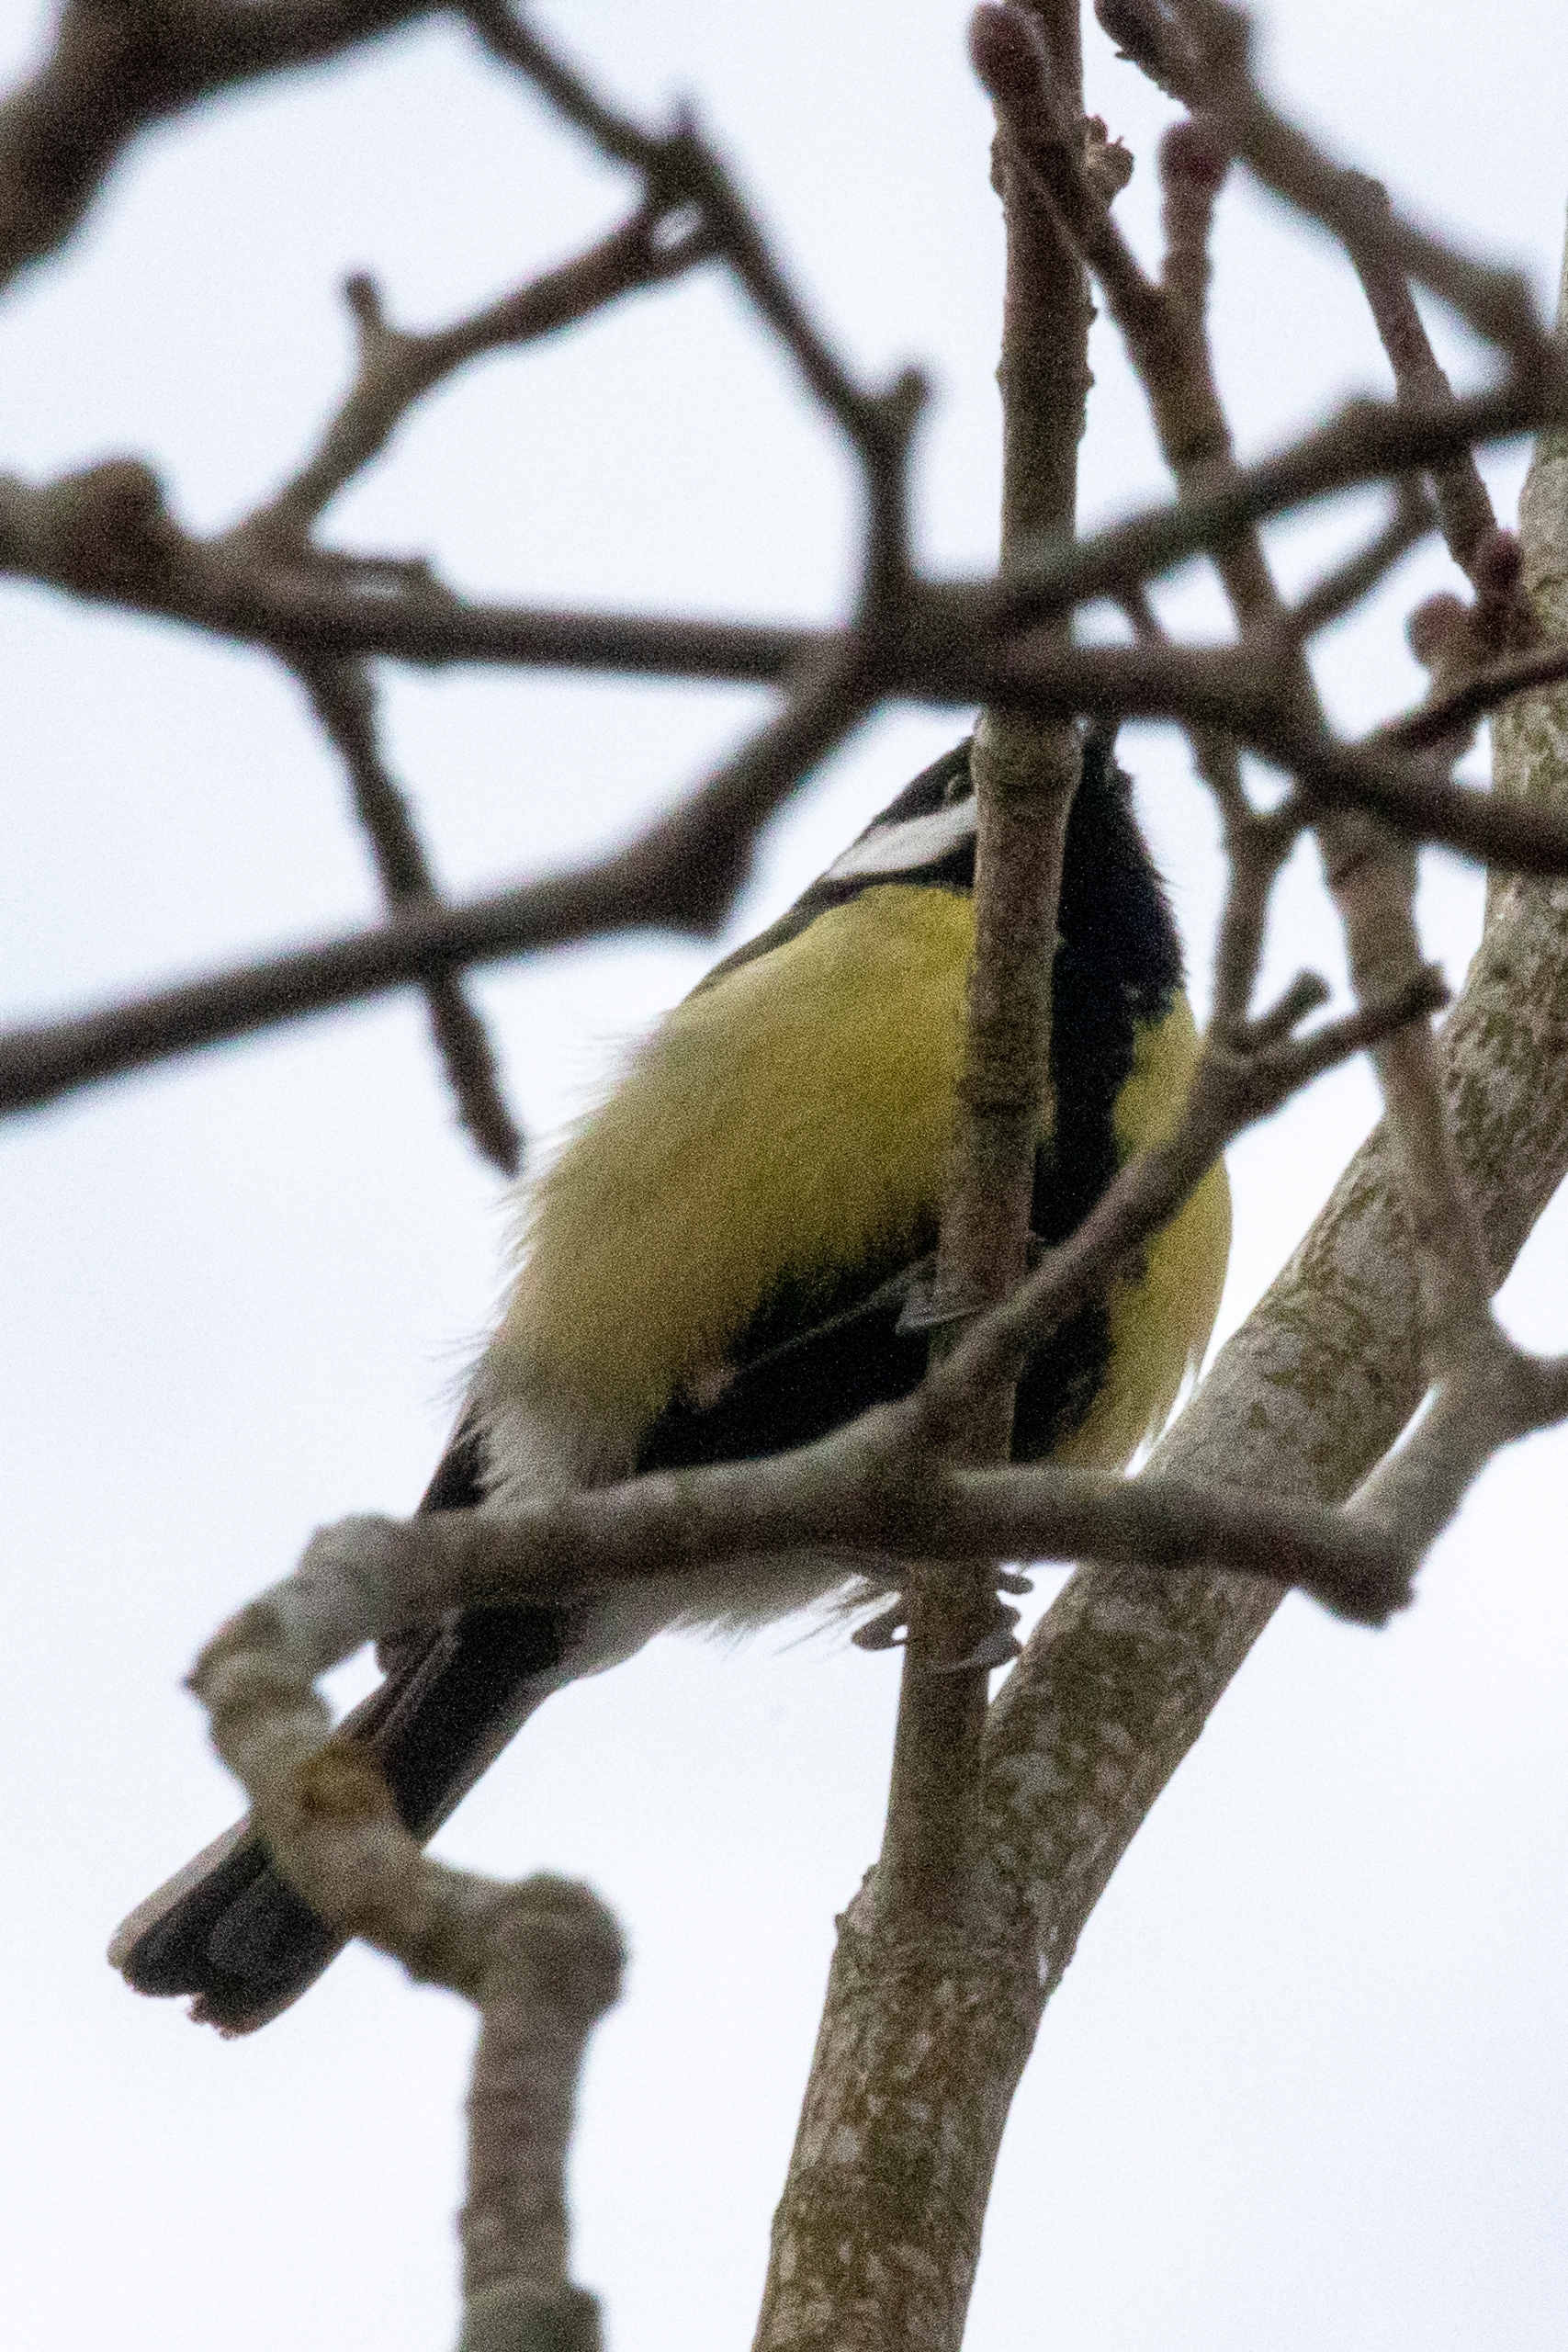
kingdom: Animalia
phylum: Chordata
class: Aves
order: Passeriformes
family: Paridae
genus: Parus
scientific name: Parus major
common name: Musvit
